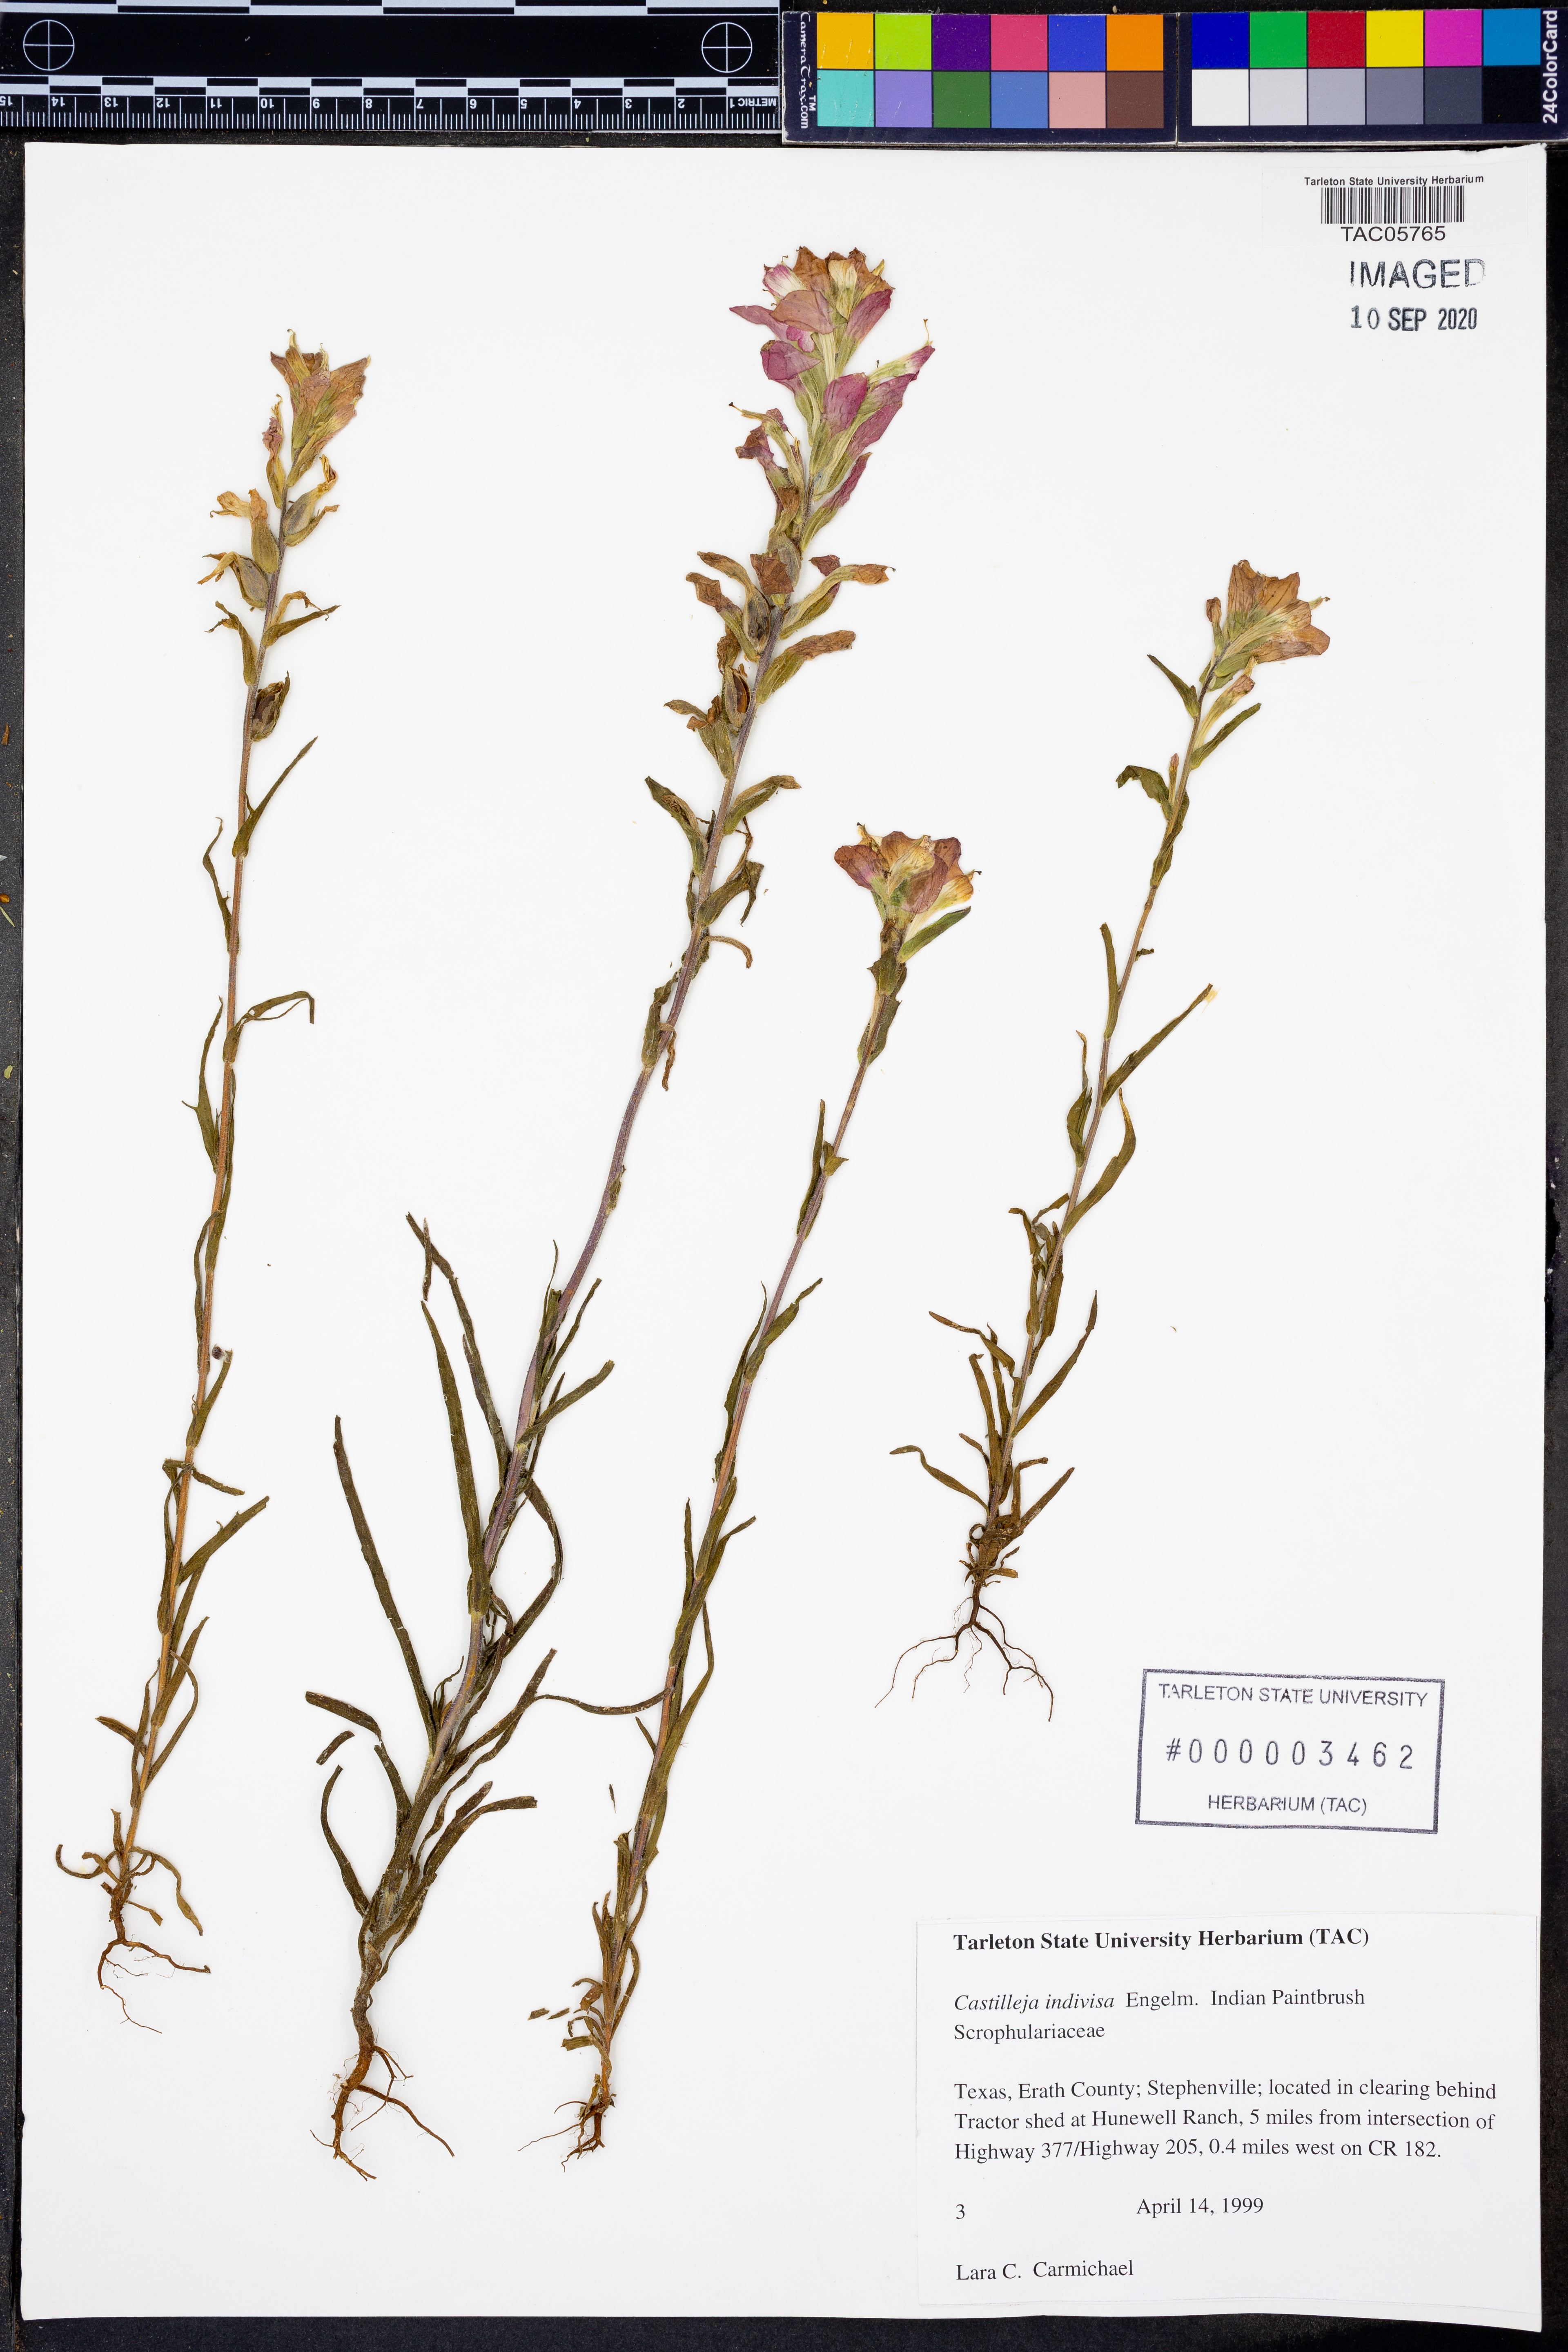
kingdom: Plantae
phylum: Tracheophyta
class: Magnoliopsida
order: Lamiales
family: Orobanchaceae
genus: Castilleja
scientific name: Castilleja indivisa
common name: Texas paintbrush
